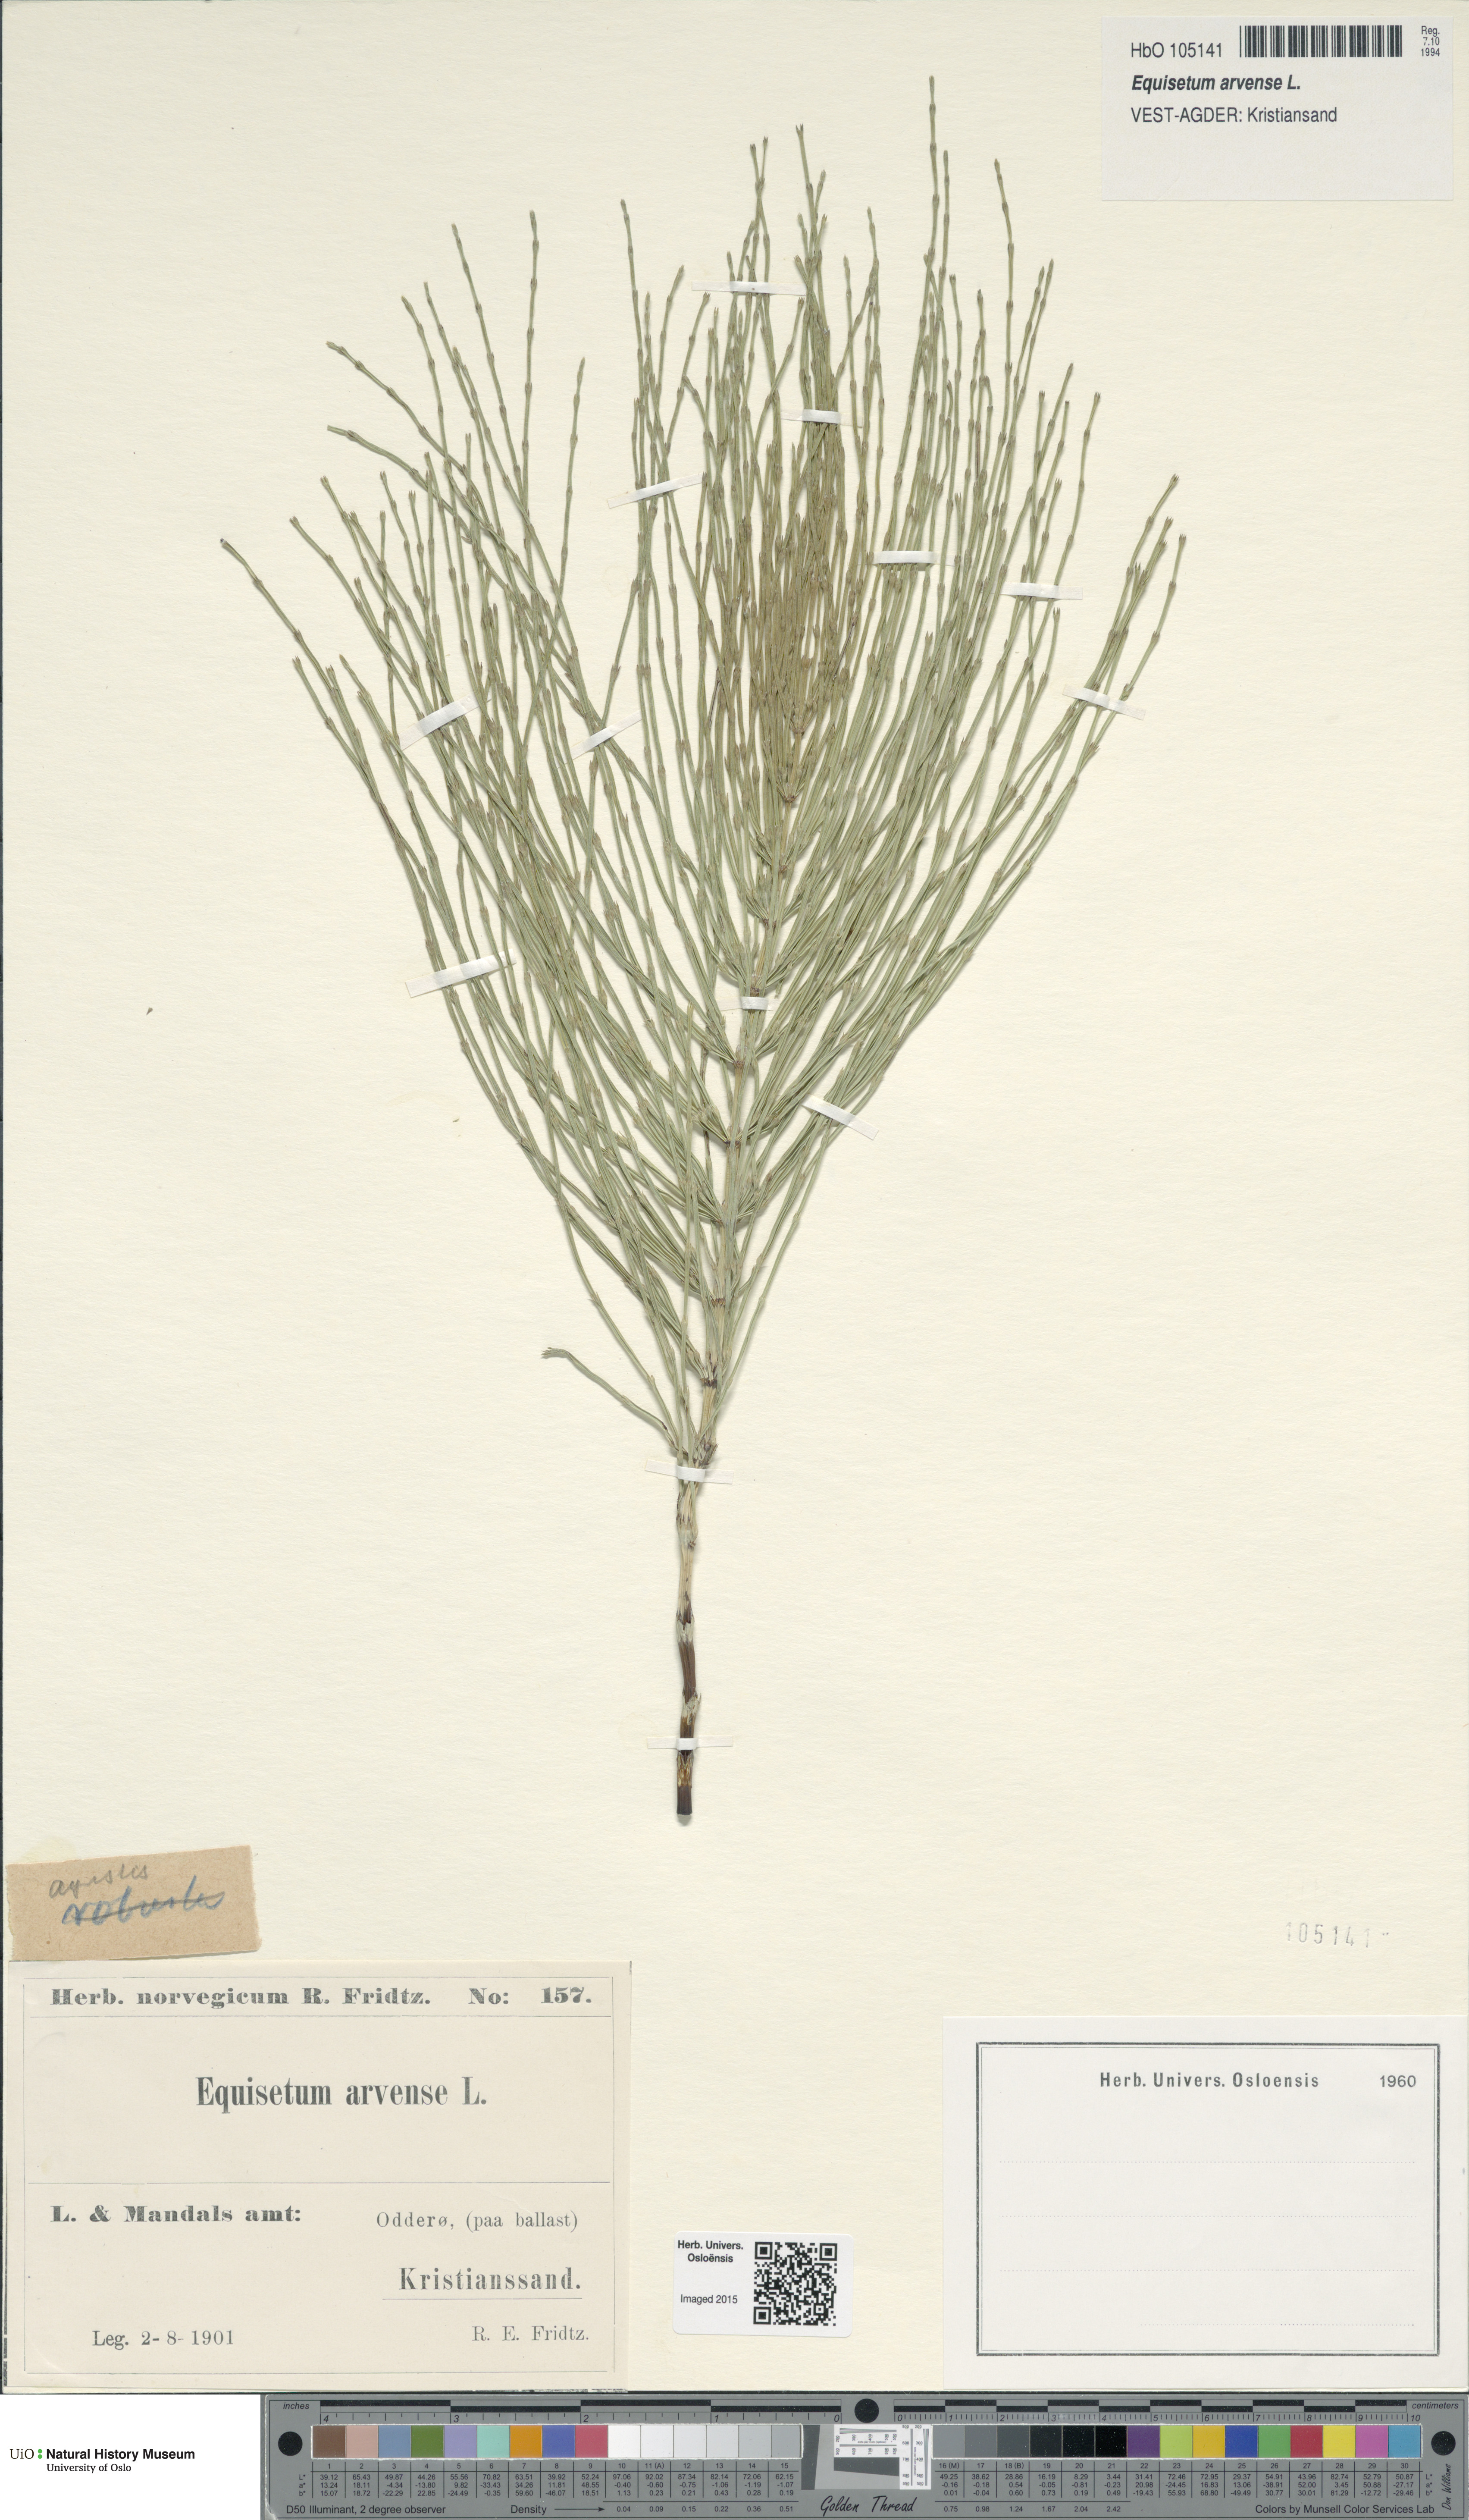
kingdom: Plantae
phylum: Tracheophyta
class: Polypodiopsida
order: Equisetales
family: Equisetaceae
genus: Equisetum
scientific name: Equisetum arvense
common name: Field horsetail
